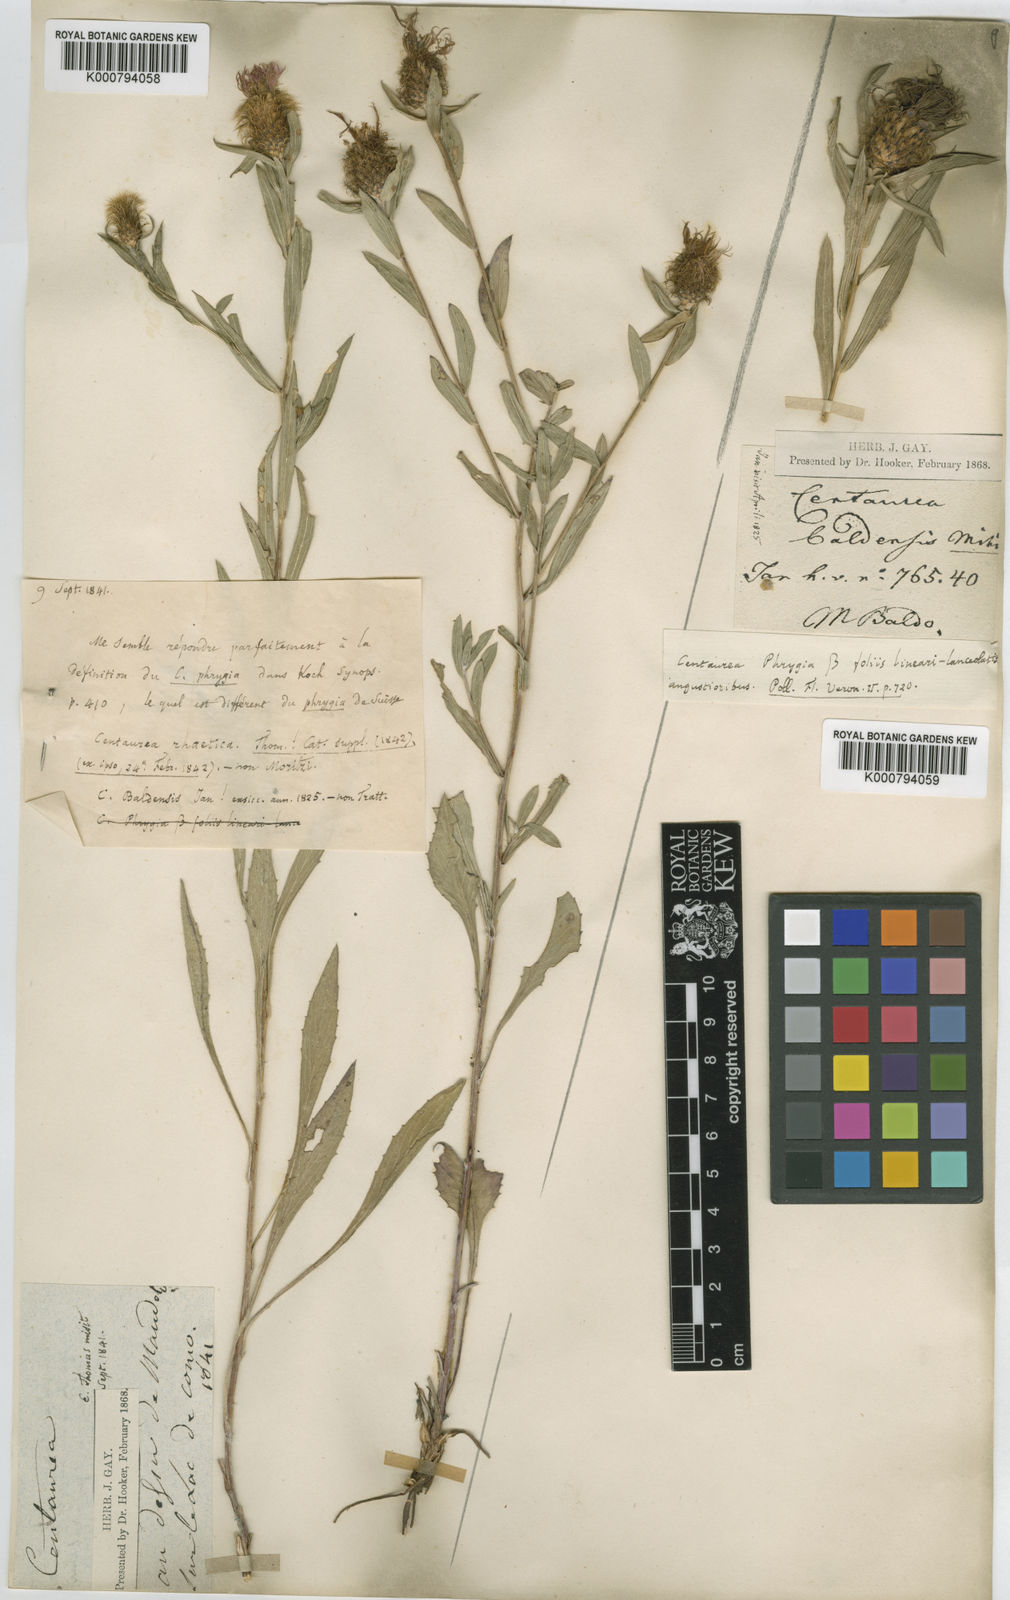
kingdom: Plantae
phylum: Tracheophyta
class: Magnoliopsida
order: Asterales
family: Asteraceae
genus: Centaurea
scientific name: Centaurea rhaetica
